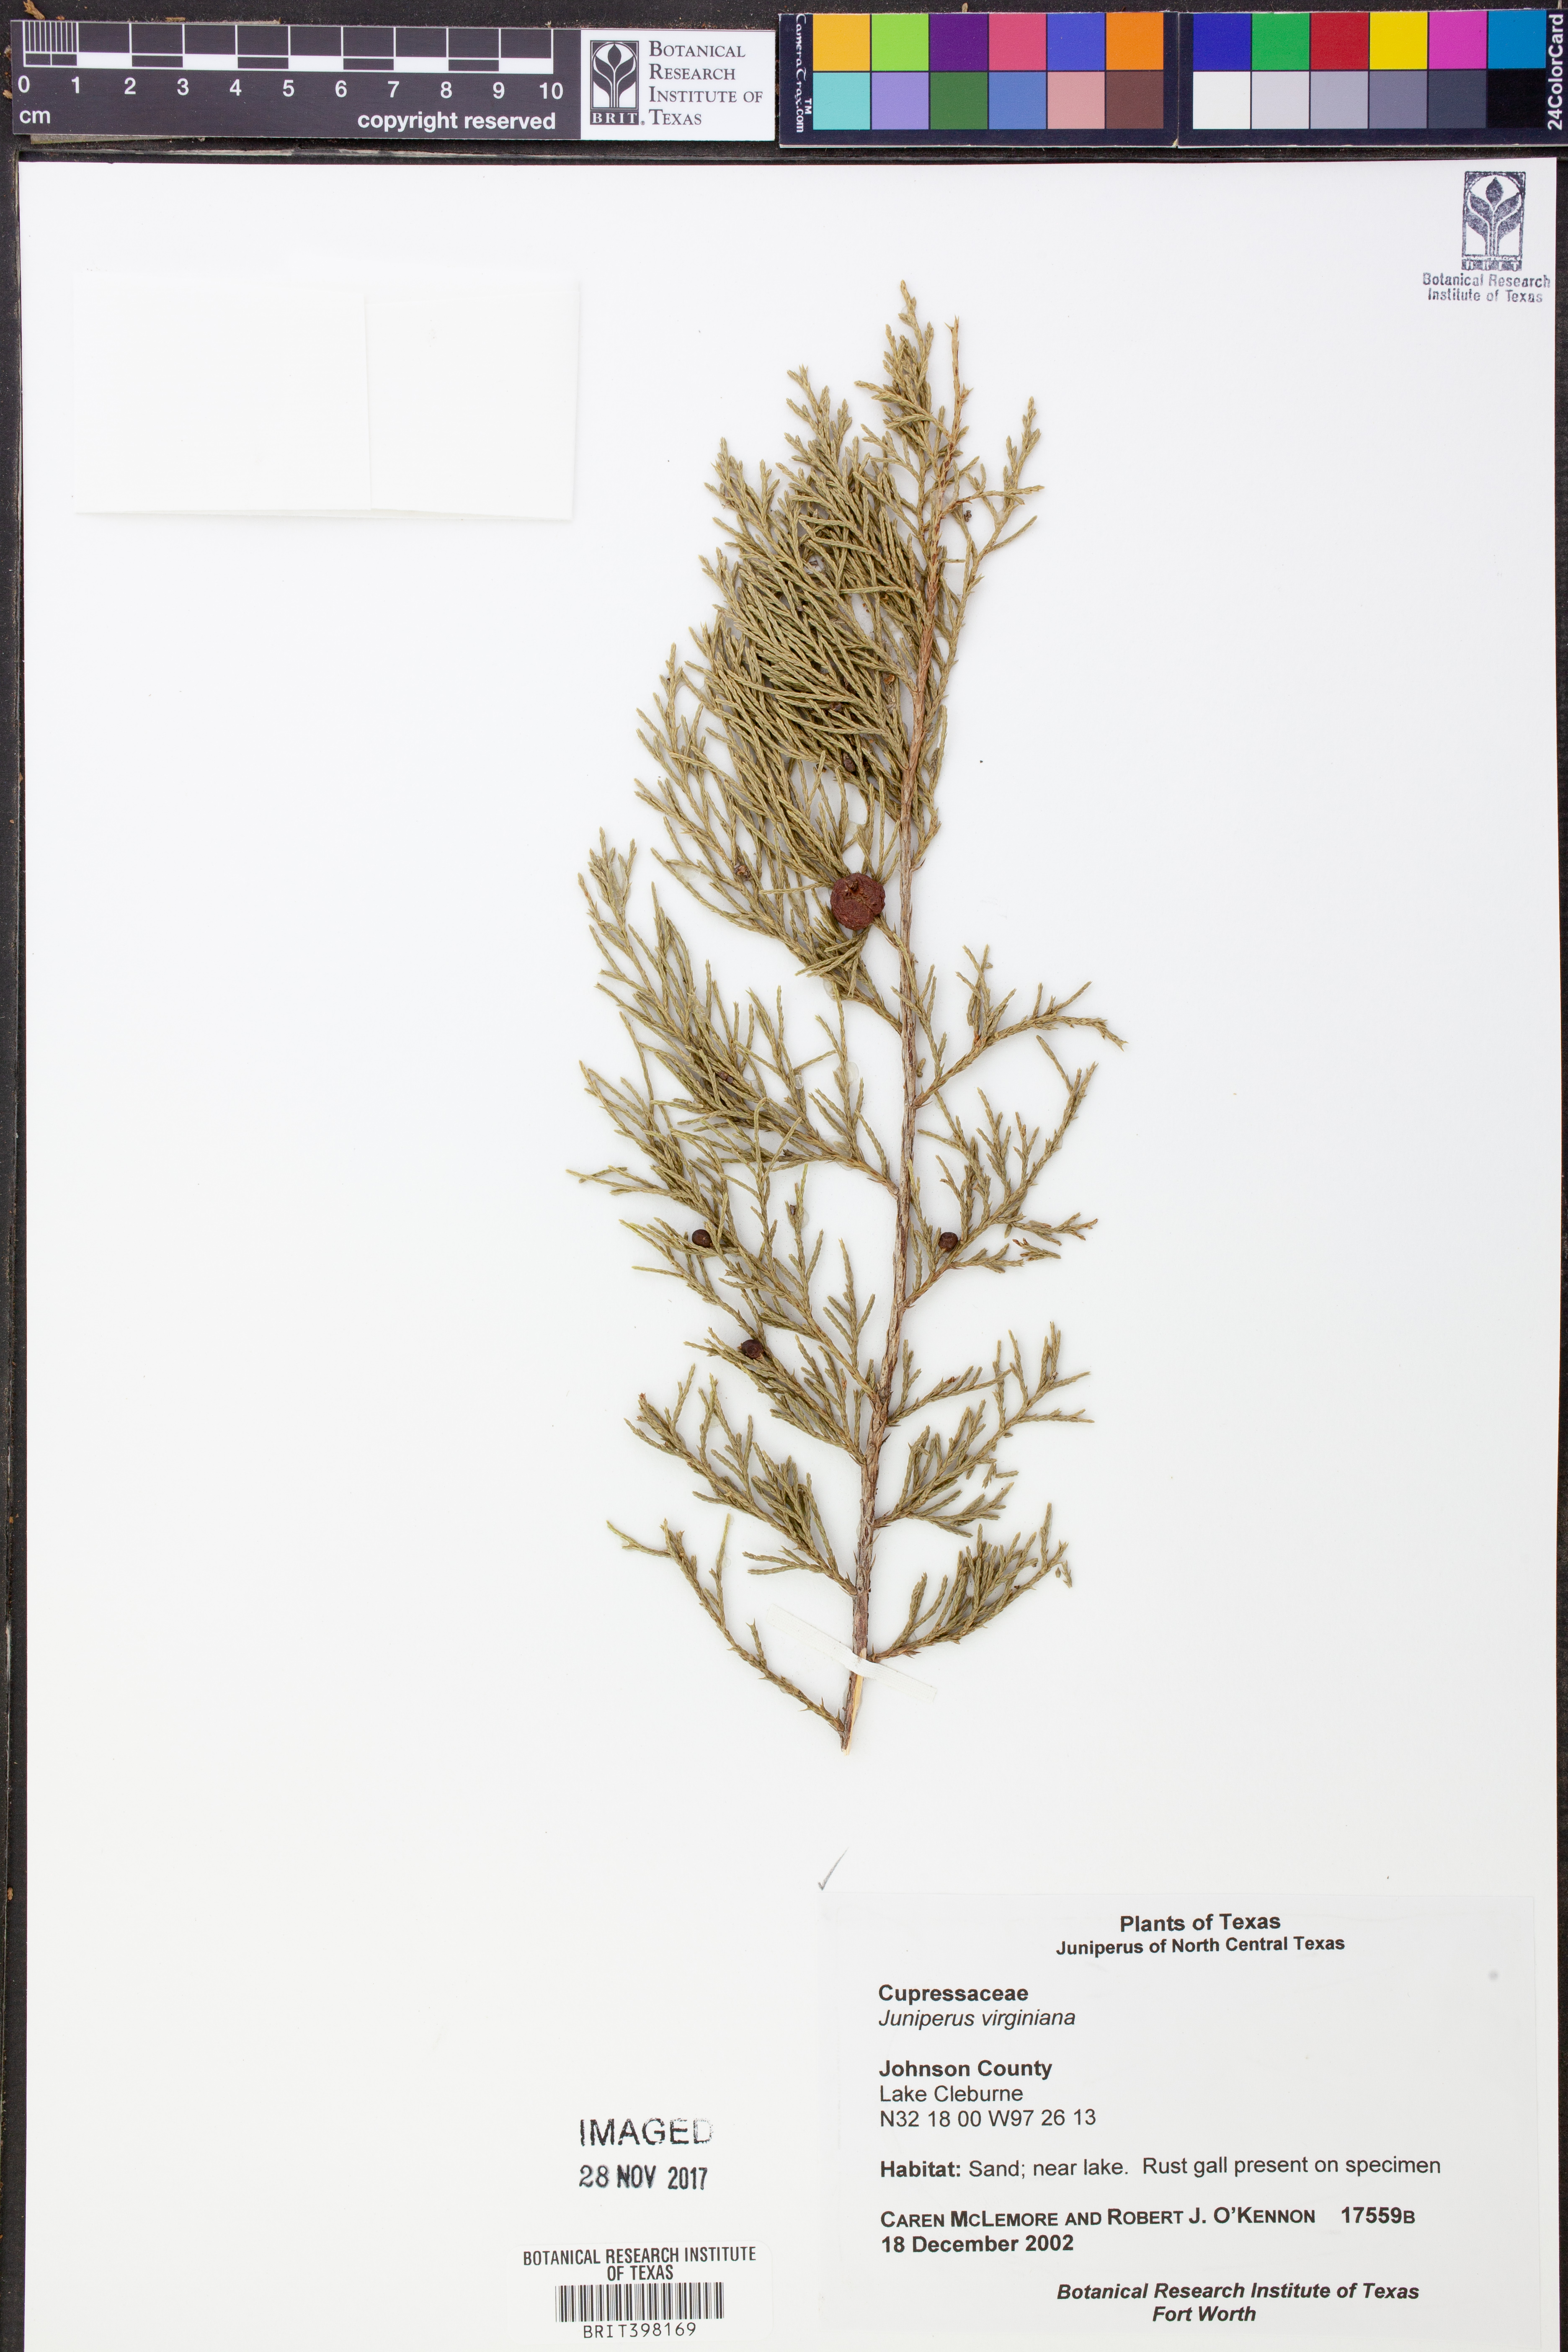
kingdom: Plantae
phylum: Tracheophyta
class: Pinopsida
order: Pinales
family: Cupressaceae
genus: Juniperus
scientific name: Juniperus virginiana
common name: Red juniper
